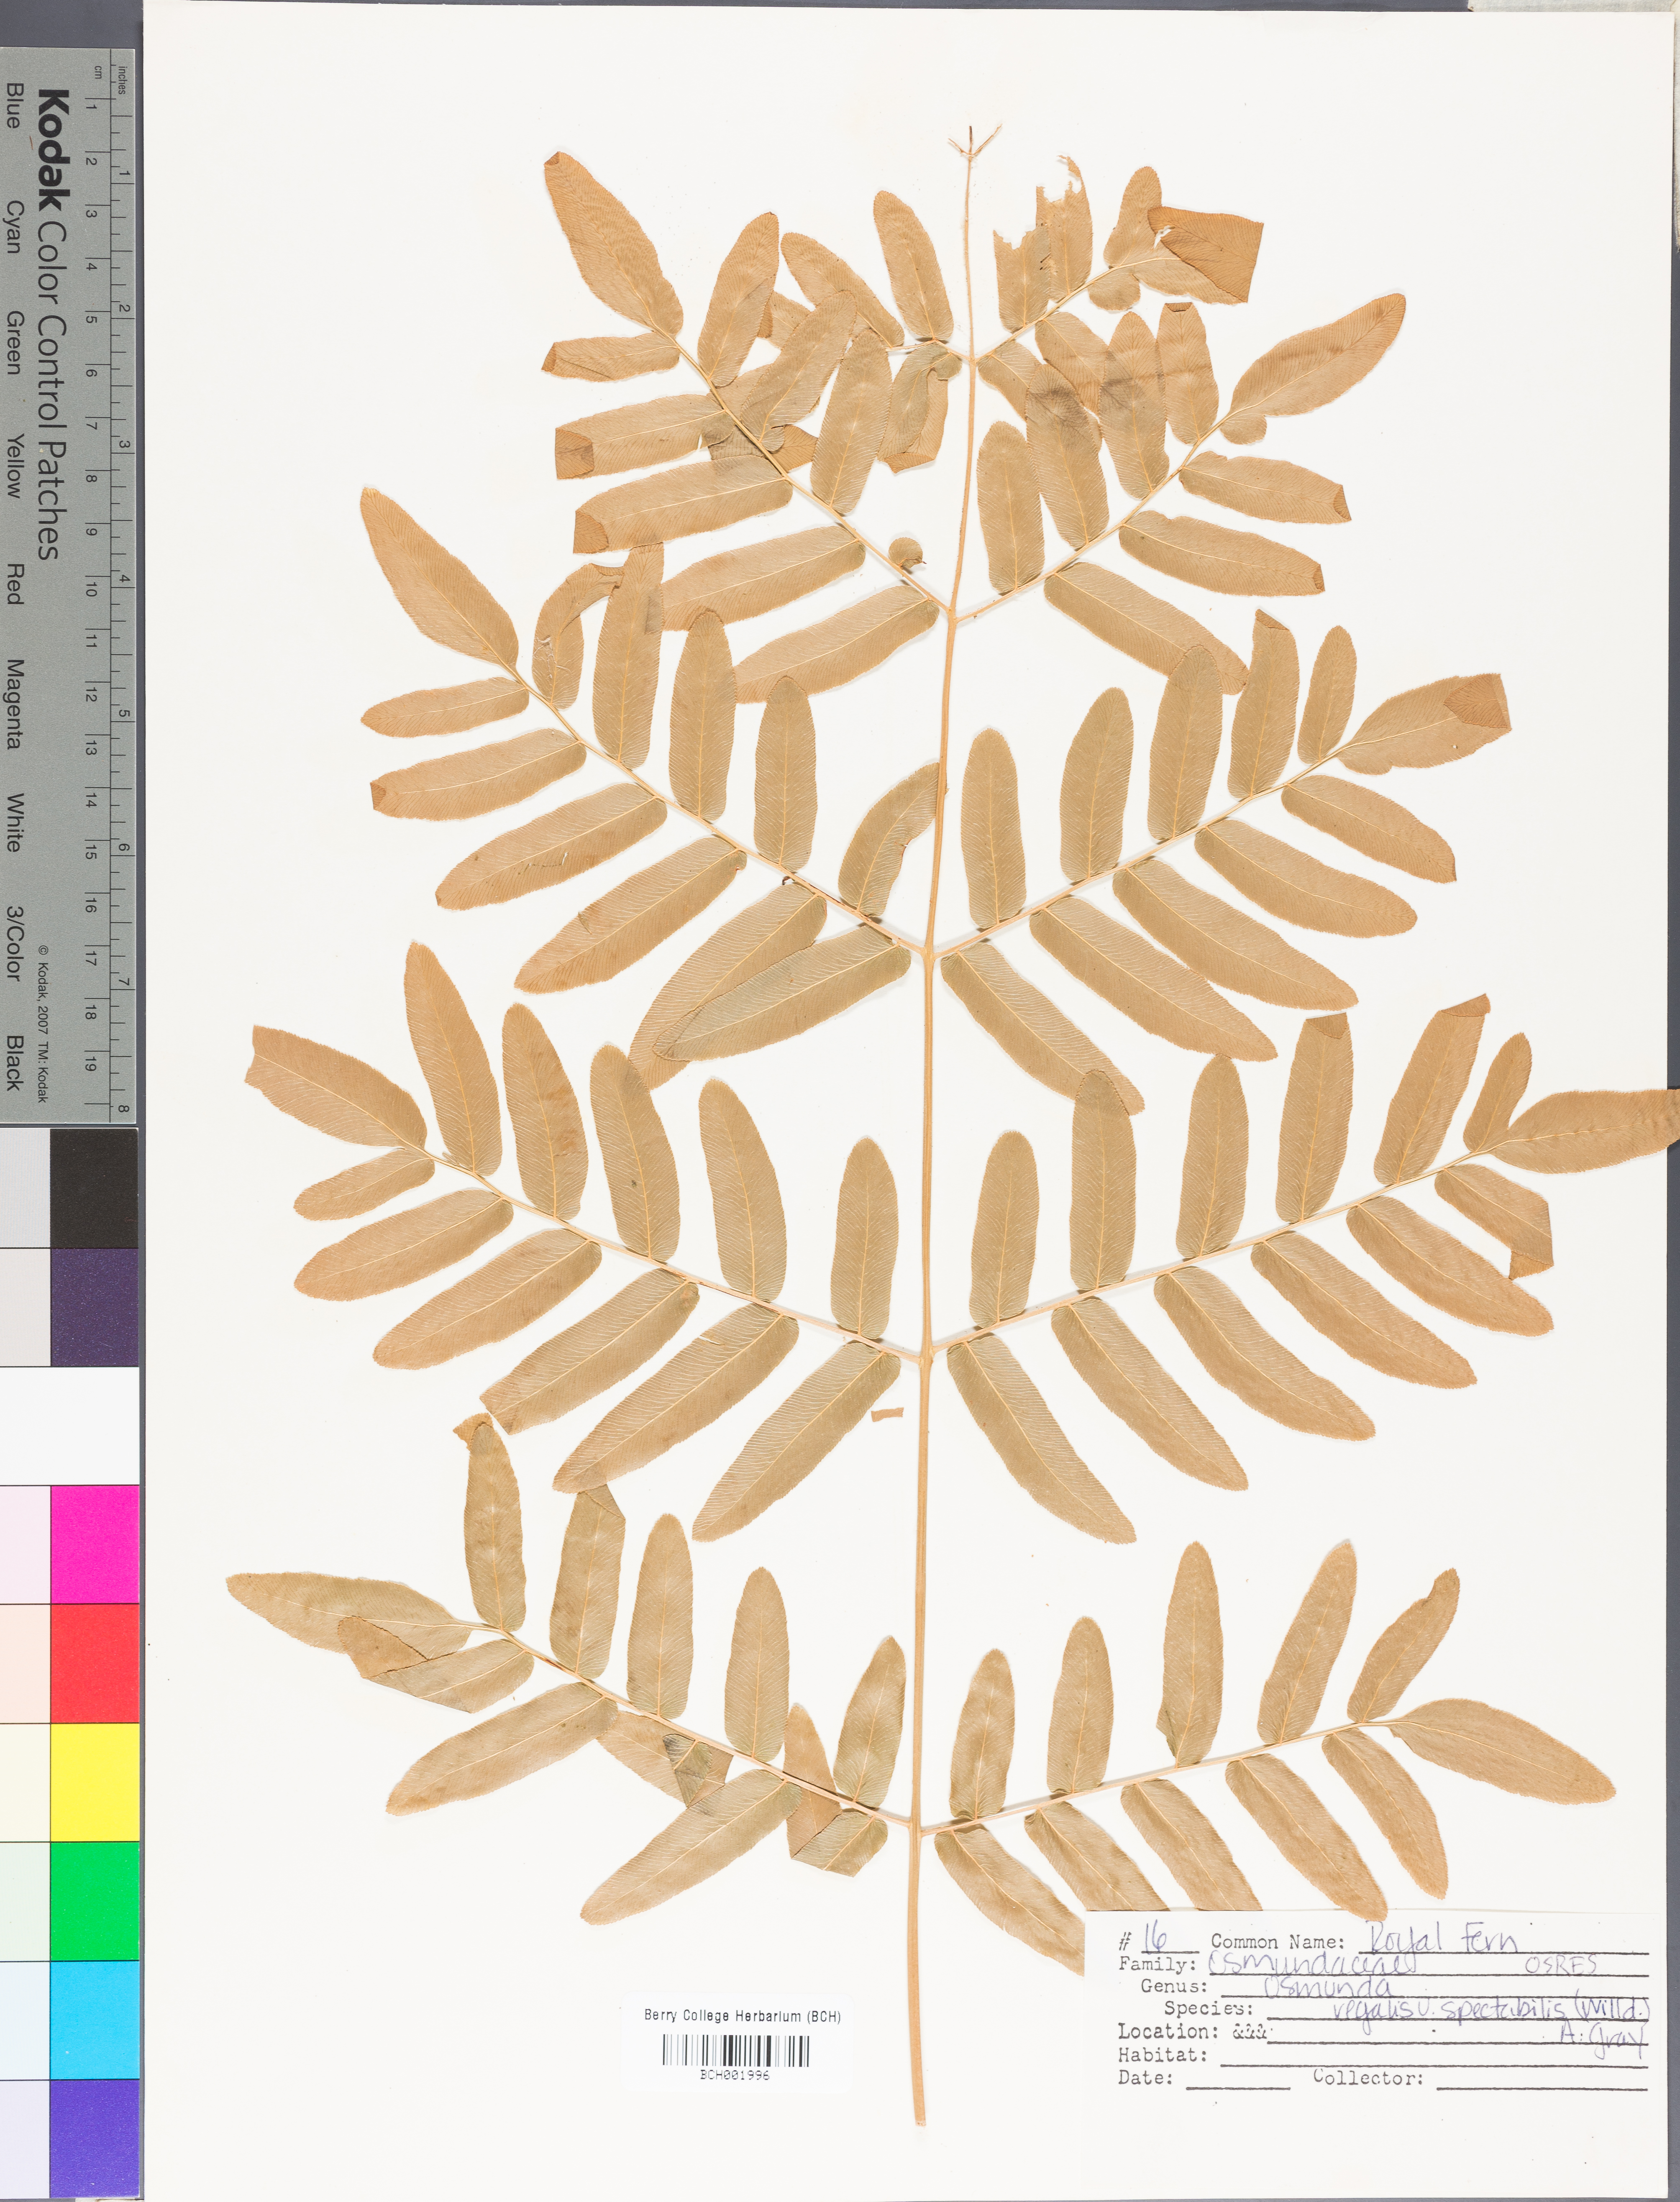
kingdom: Plantae
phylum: Tracheophyta
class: Polypodiopsida
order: Osmundales
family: Osmundaceae
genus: Osmunda
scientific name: Osmunda spectabilis
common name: American royal fern
